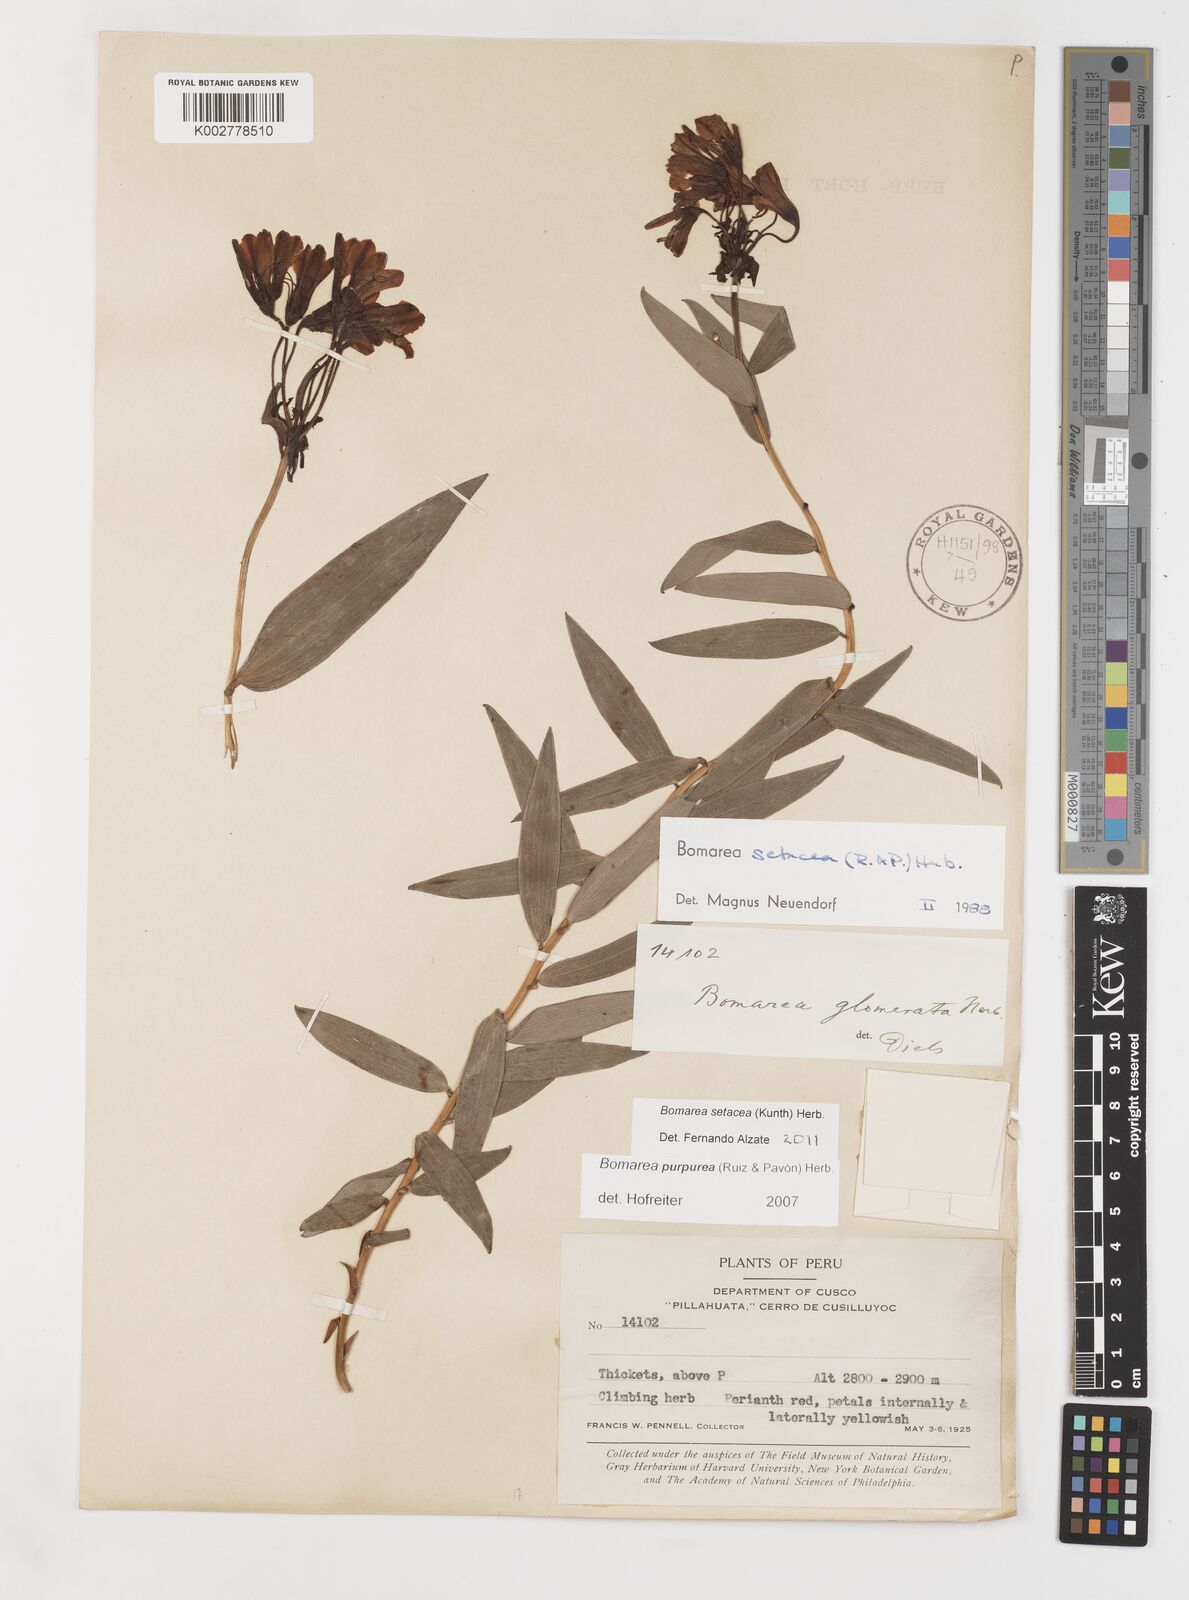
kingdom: Plantae
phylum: Tracheophyta
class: Liliopsida
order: Liliales
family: Alstroemeriaceae
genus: Bomarea
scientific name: Bomarea setacea
